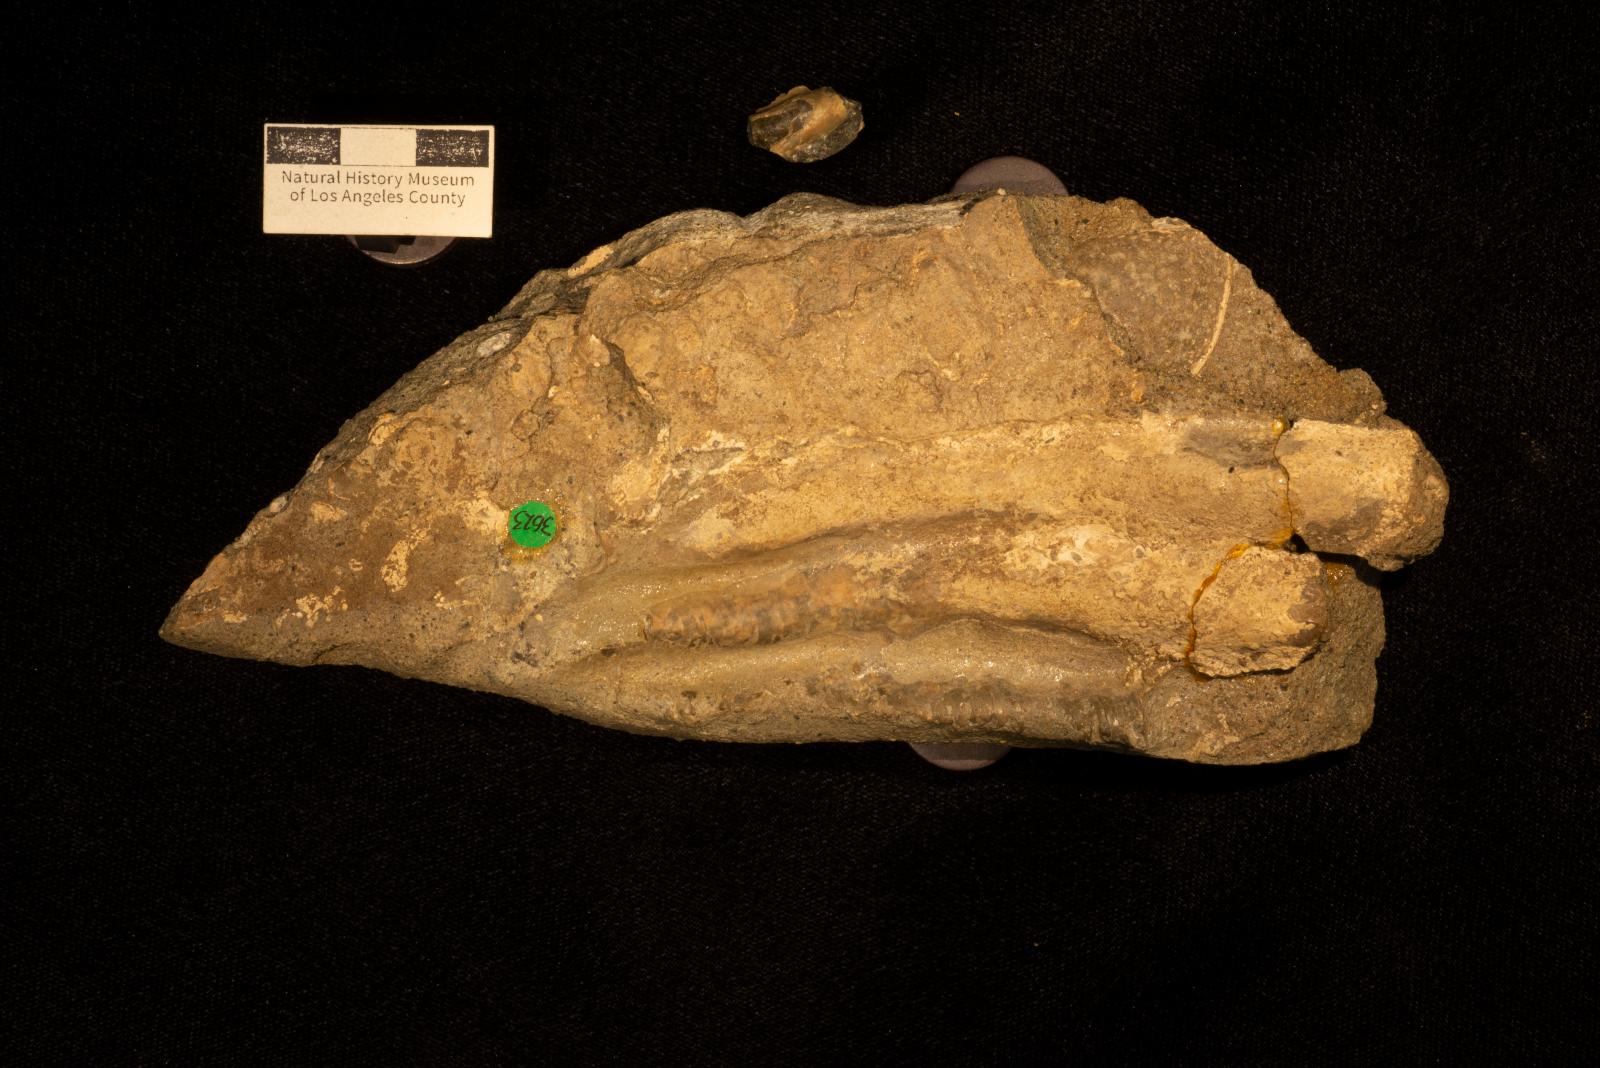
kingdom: Animalia
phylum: Mollusca
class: Bivalvia
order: Myalinida
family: Inoceramidae
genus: Cladoceramus
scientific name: Cladoceramus Inoceramus undulatoplicatus
